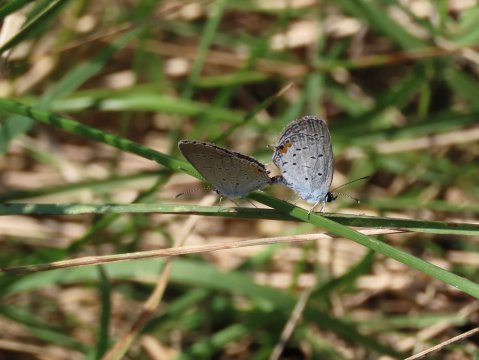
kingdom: Animalia
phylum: Arthropoda
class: Insecta
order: Lepidoptera
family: Lycaenidae
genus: Elkalyce
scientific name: Elkalyce comyntas
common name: Eastern Tailed-Blue
